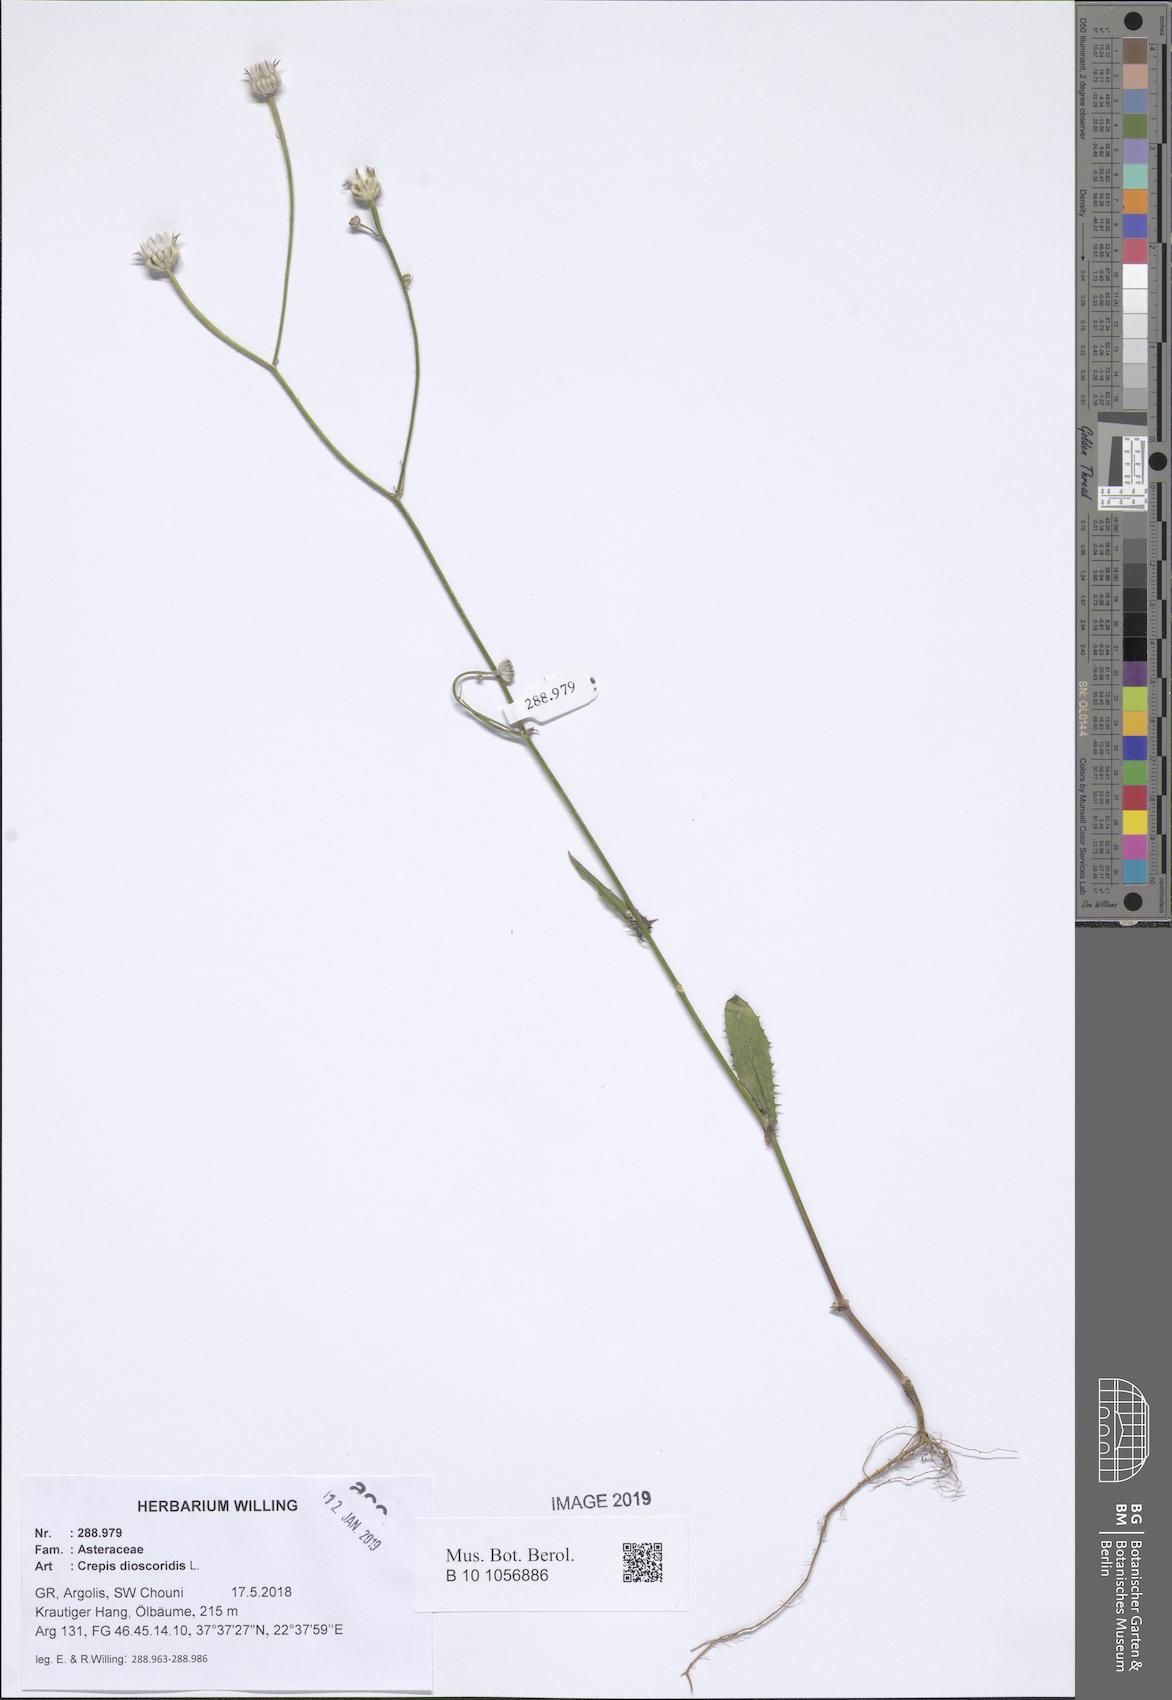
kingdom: Plantae
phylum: Tracheophyta
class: Magnoliopsida
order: Asterales
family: Asteraceae
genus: Crepis
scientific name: Crepis dioscoridis
